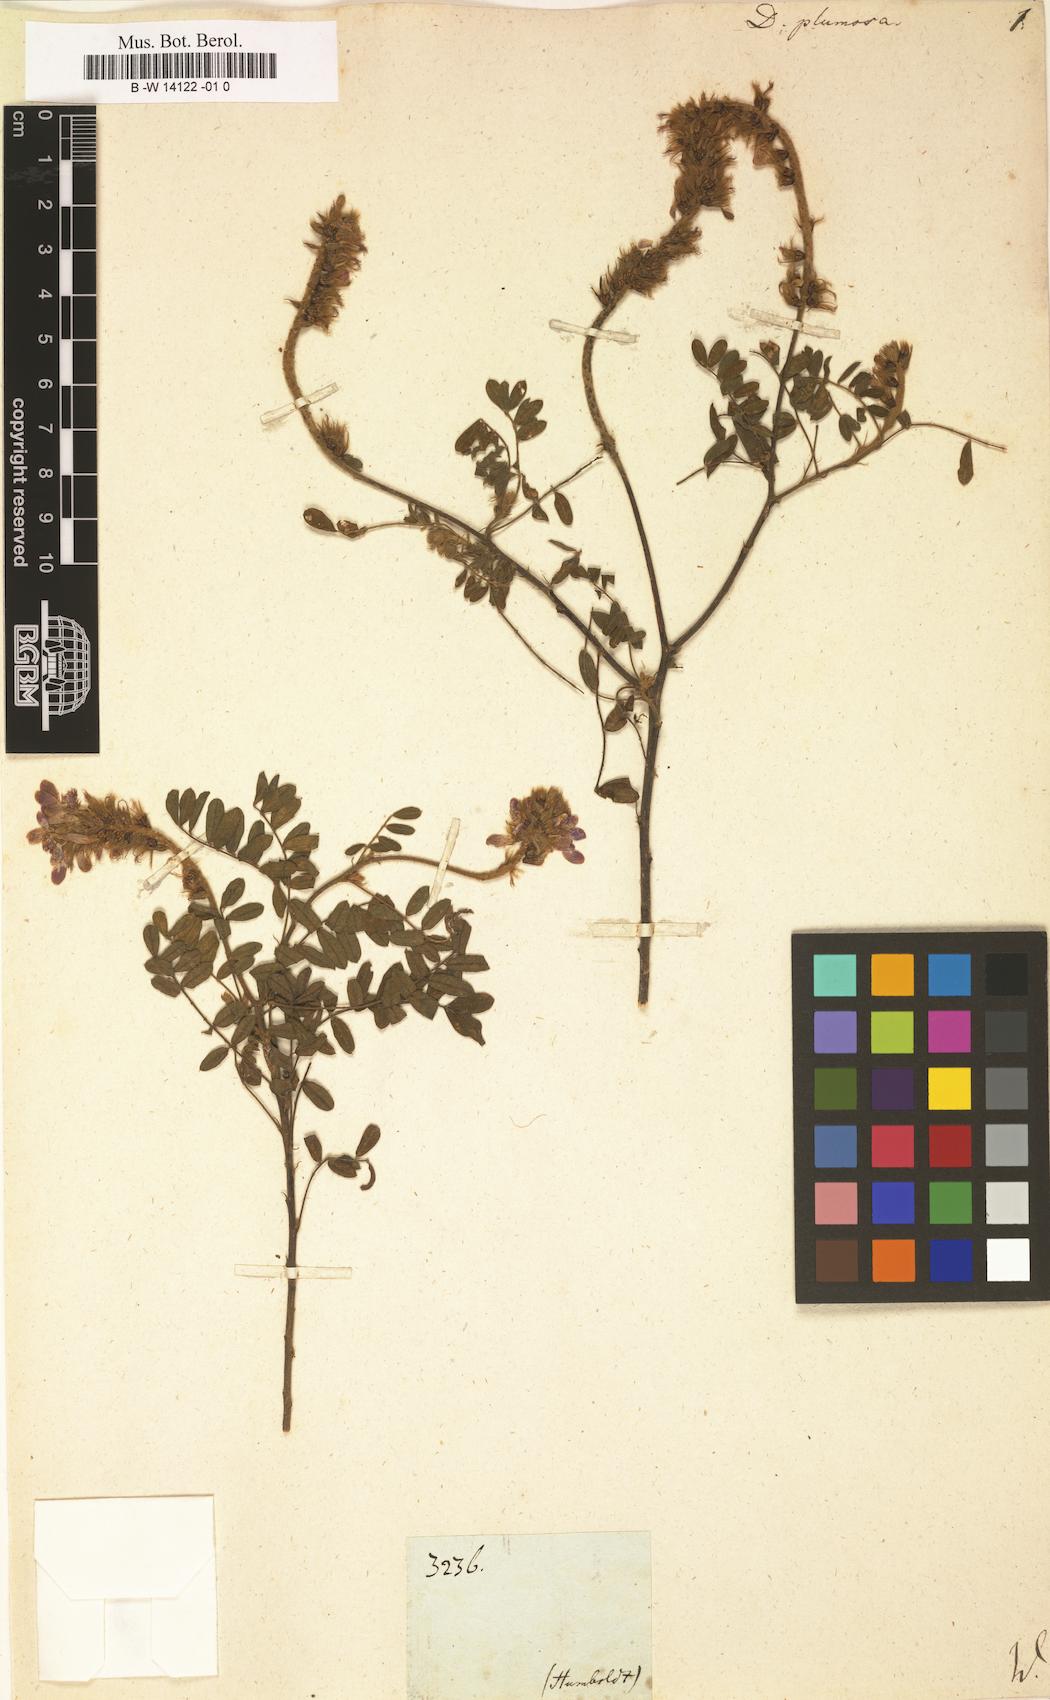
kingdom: Plantae
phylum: Tracheophyta
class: Magnoliopsida
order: Fabales
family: Fabaceae
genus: Dalea
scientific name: Dalea lutea
